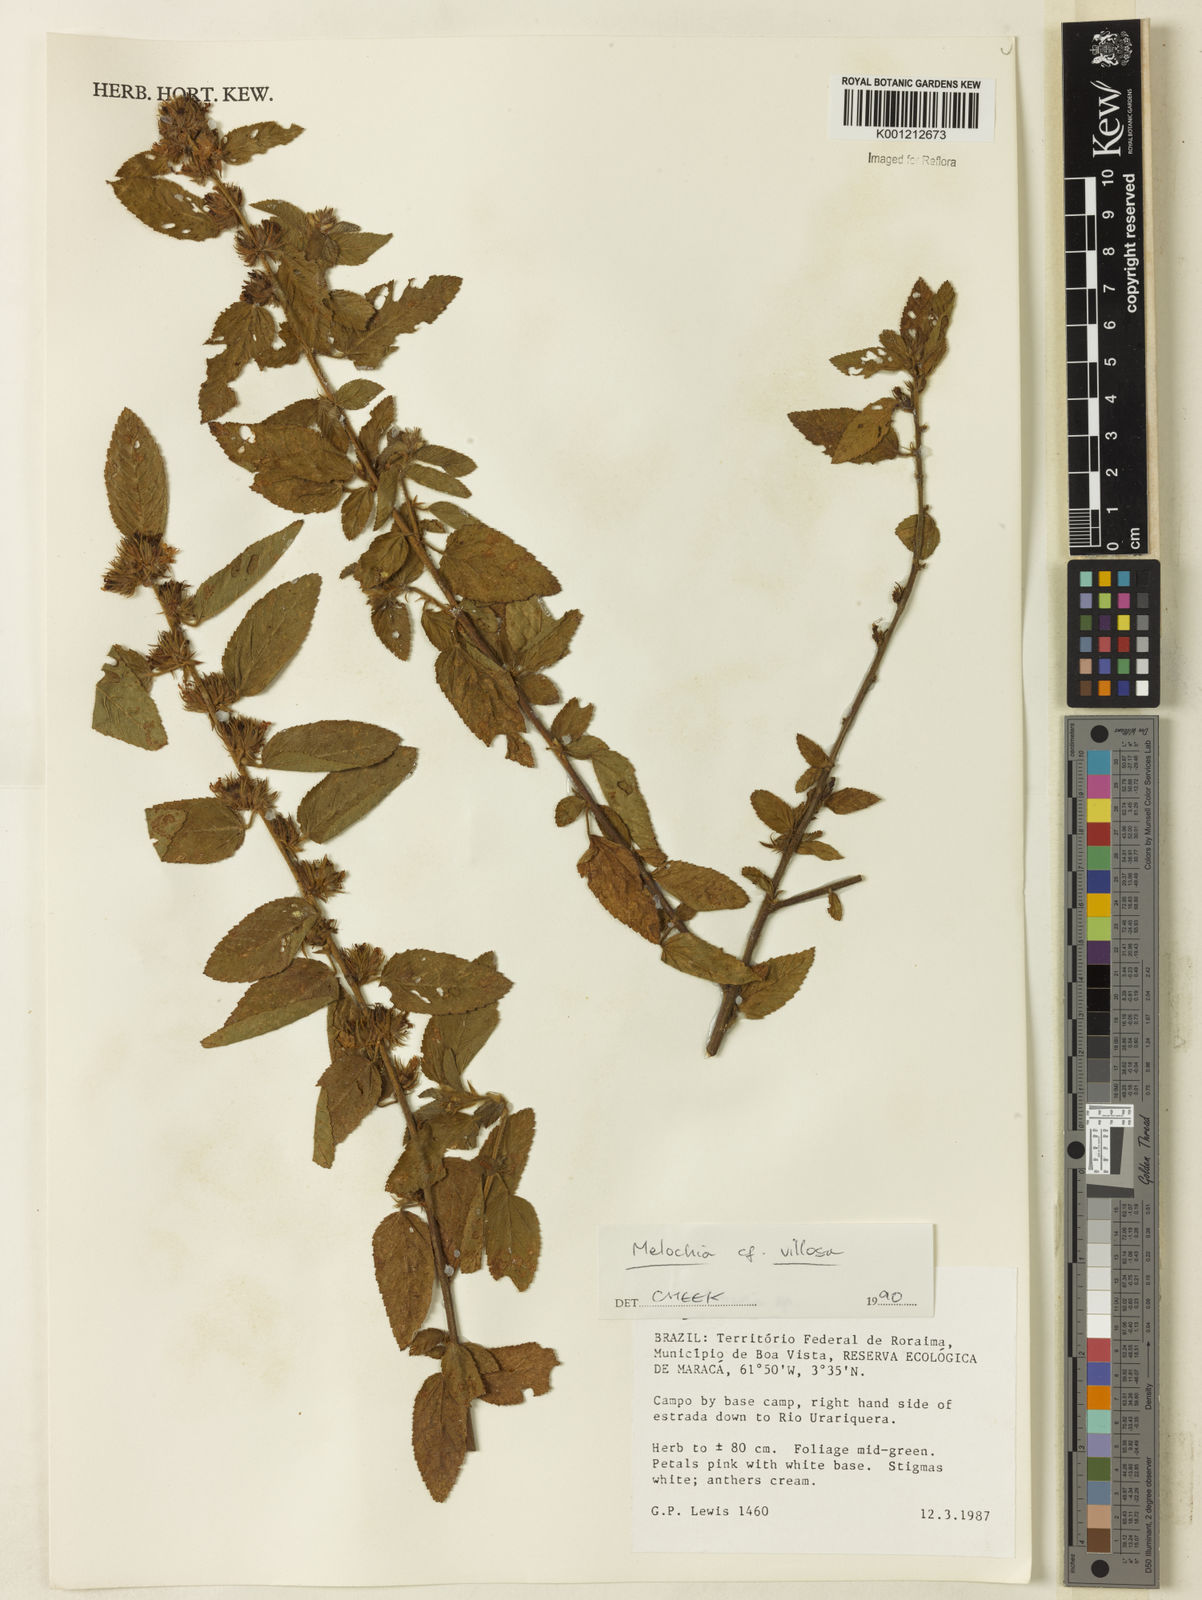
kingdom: Plantae
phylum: Tracheophyta
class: Magnoliopsida
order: Malvales
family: Malvaceae
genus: Melochia
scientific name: Melochia spicata
